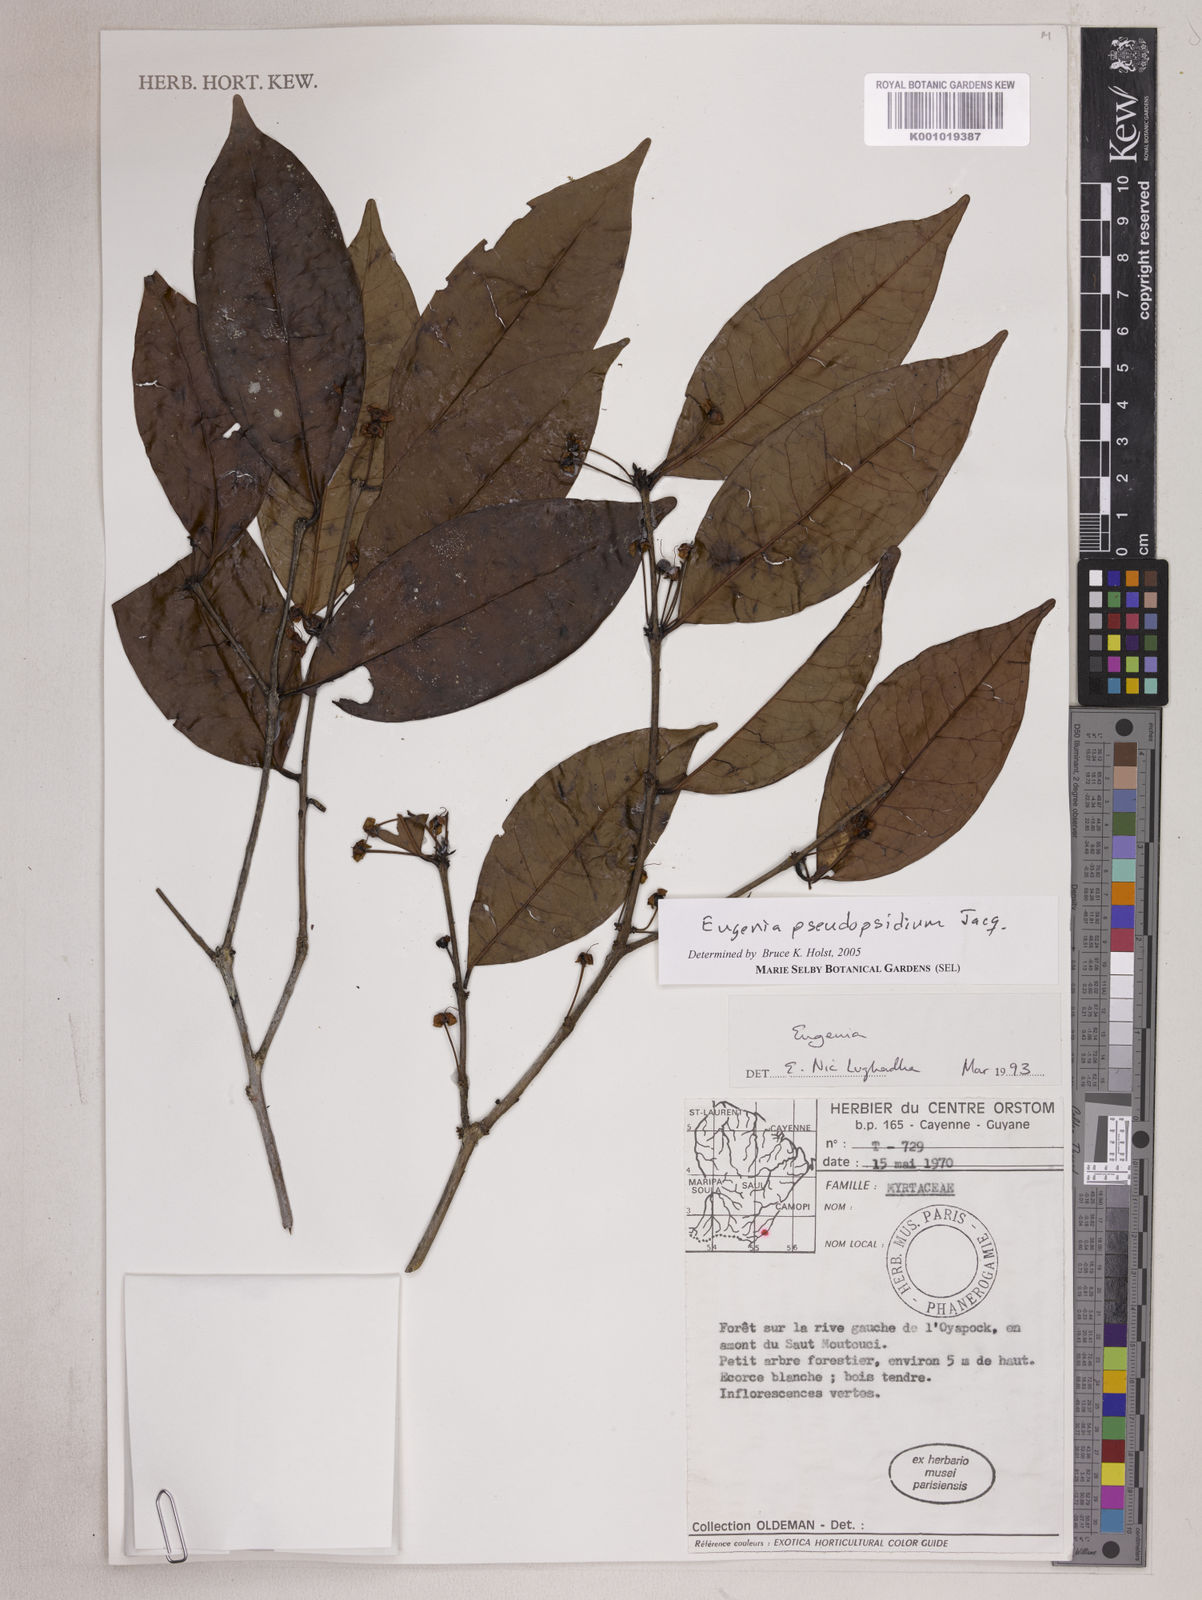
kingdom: Plantae
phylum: Tracheophyta
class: Magnoliopsida
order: Myrtales
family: Myrtaceae
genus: Eugenia
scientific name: Eugenia pseudopsidium
